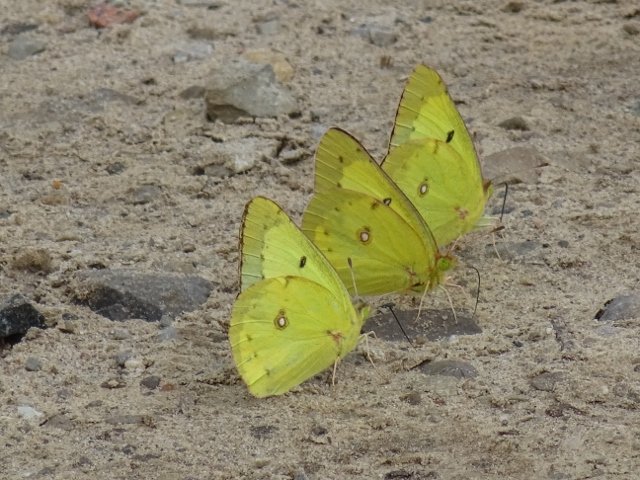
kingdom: Animalia
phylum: Arthropoda
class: Insecta
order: Lepidoptera
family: Pieridae
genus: Colias
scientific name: Colias philodice
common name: Clouded Sulphur
